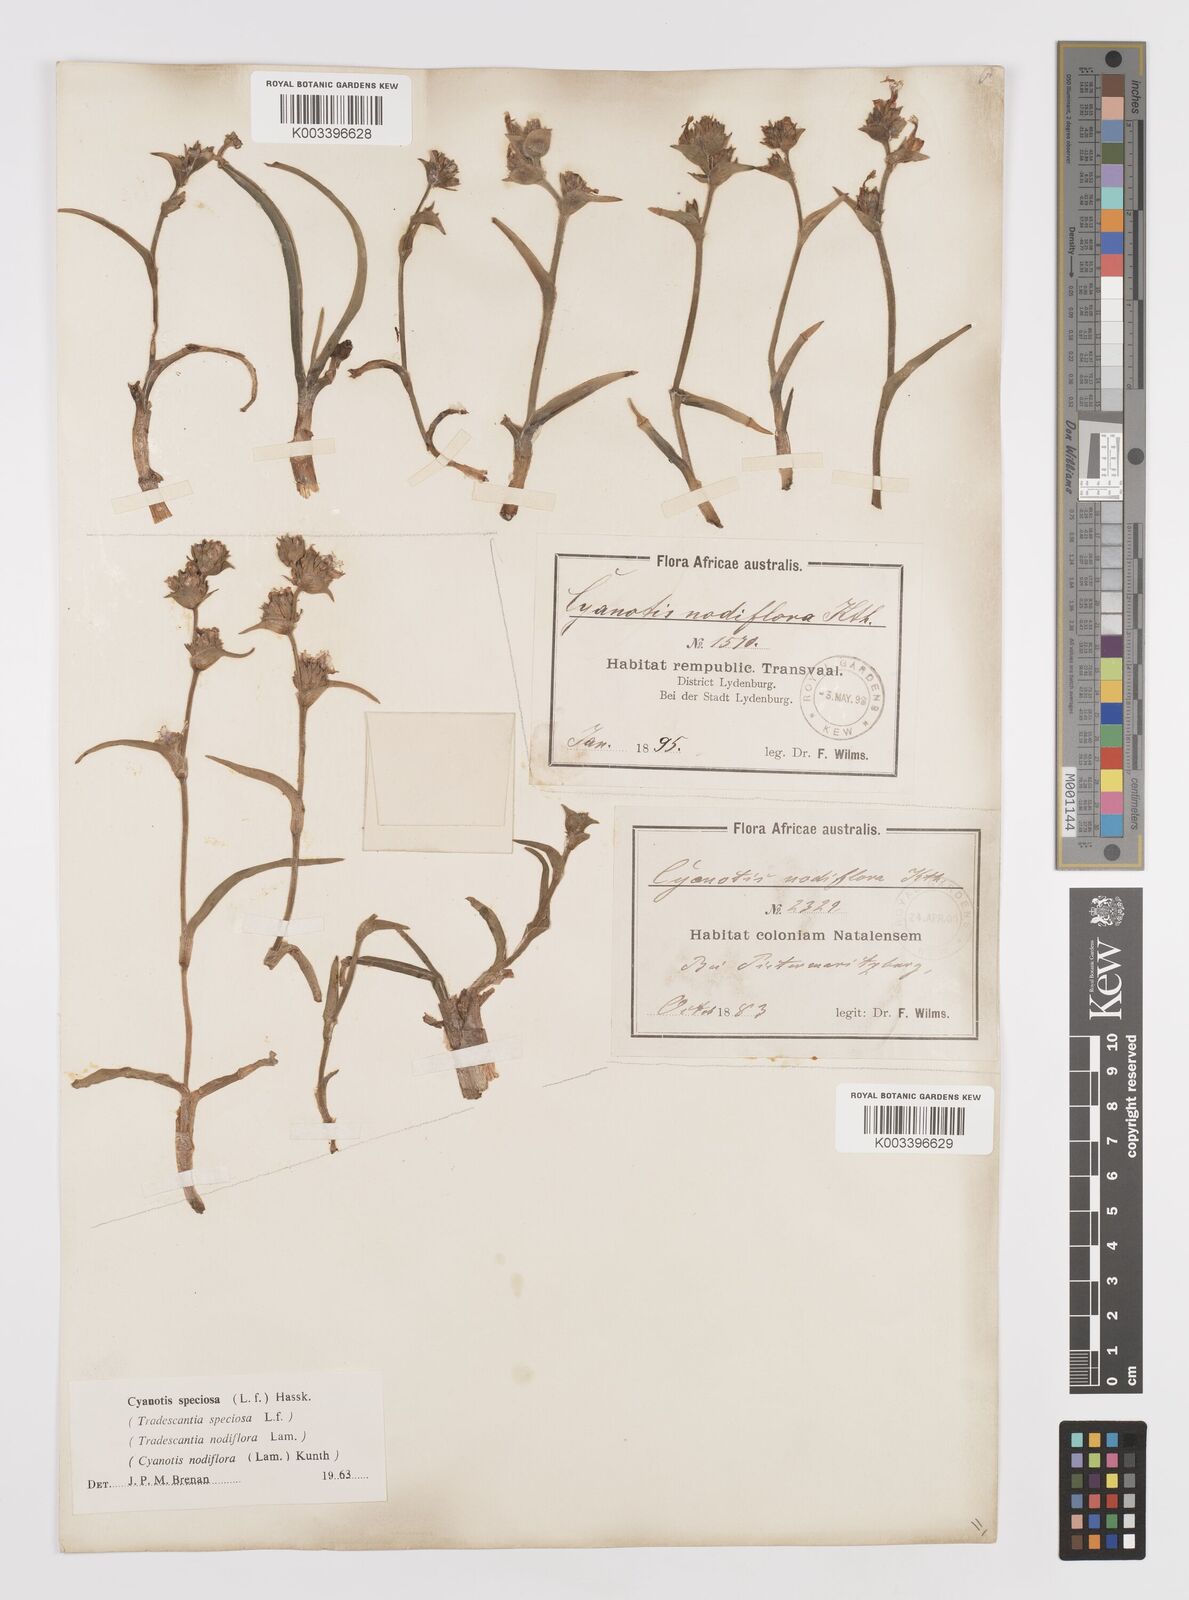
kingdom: Plantae
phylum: Tracheophyta
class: Liliopsida
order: Commelinales
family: Commelinaceae
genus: Cyanotis
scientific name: Cyanotis speciosa
